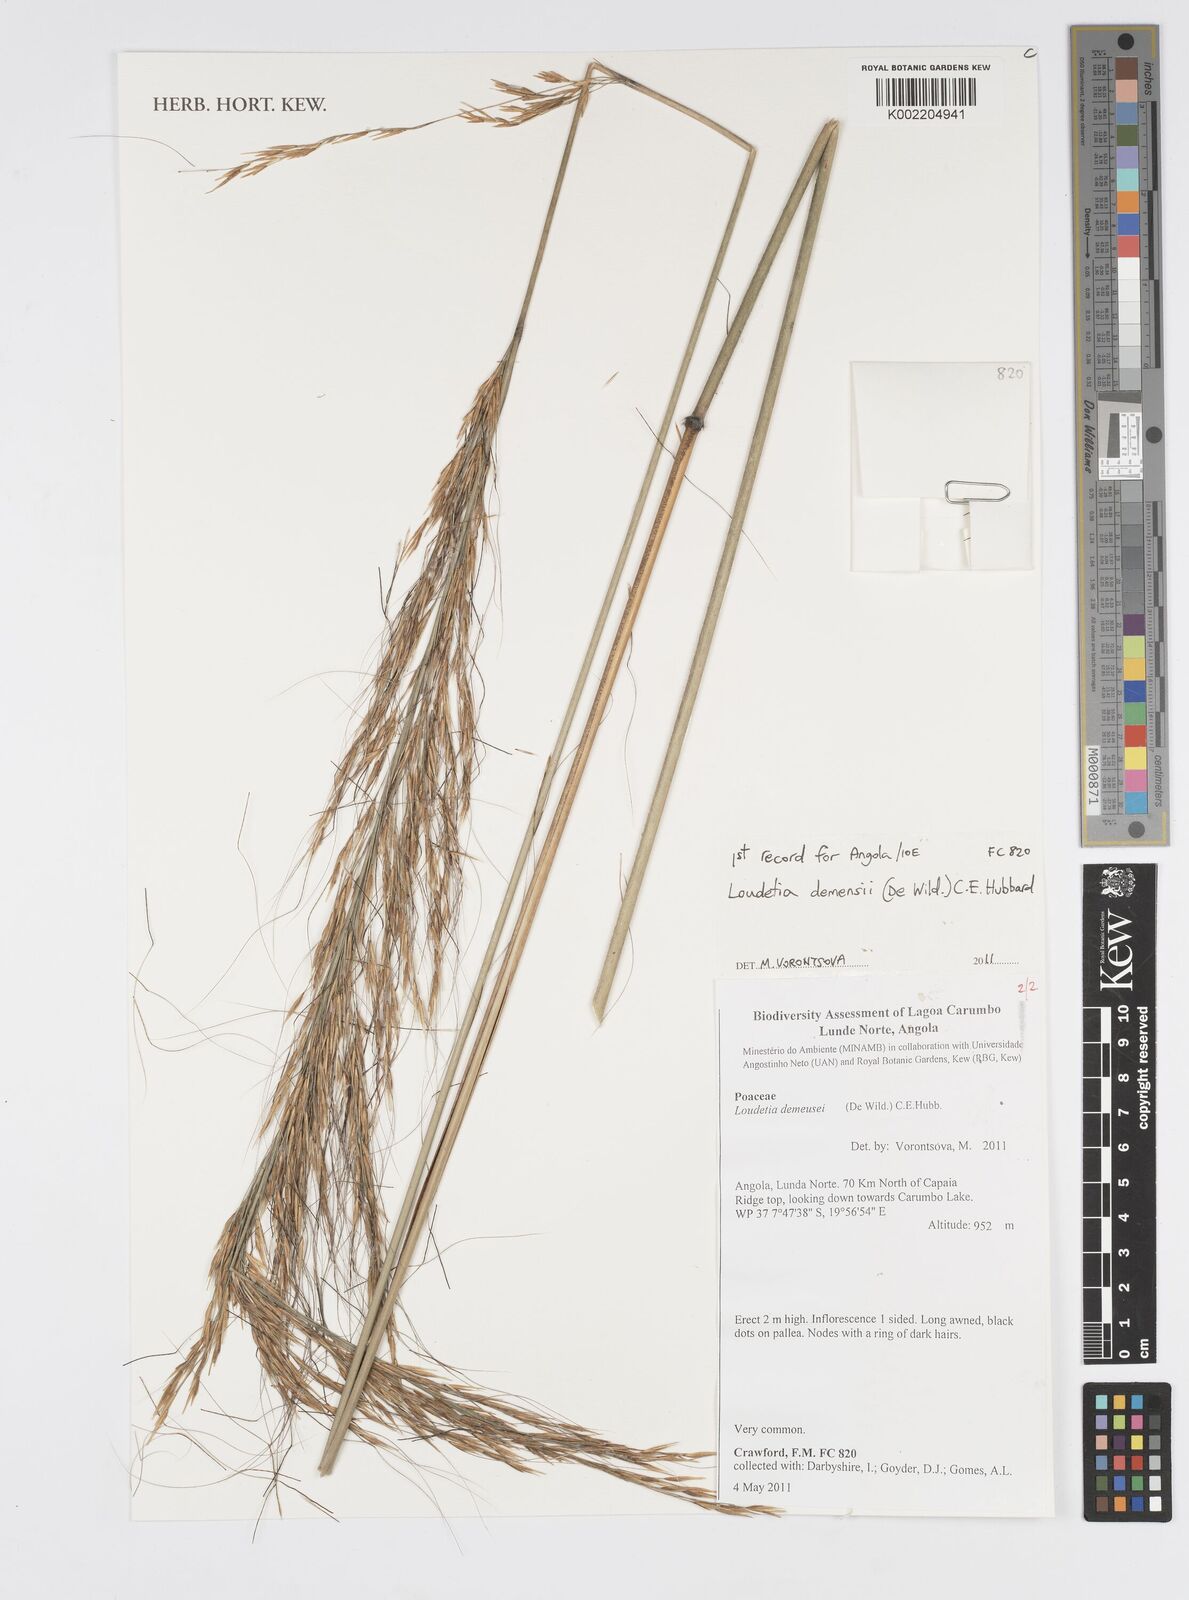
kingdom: Plantae
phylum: Tracheophyta
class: Liliopsida
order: Poales
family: Poaceae
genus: Loudetia
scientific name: Loudetia demeusei
